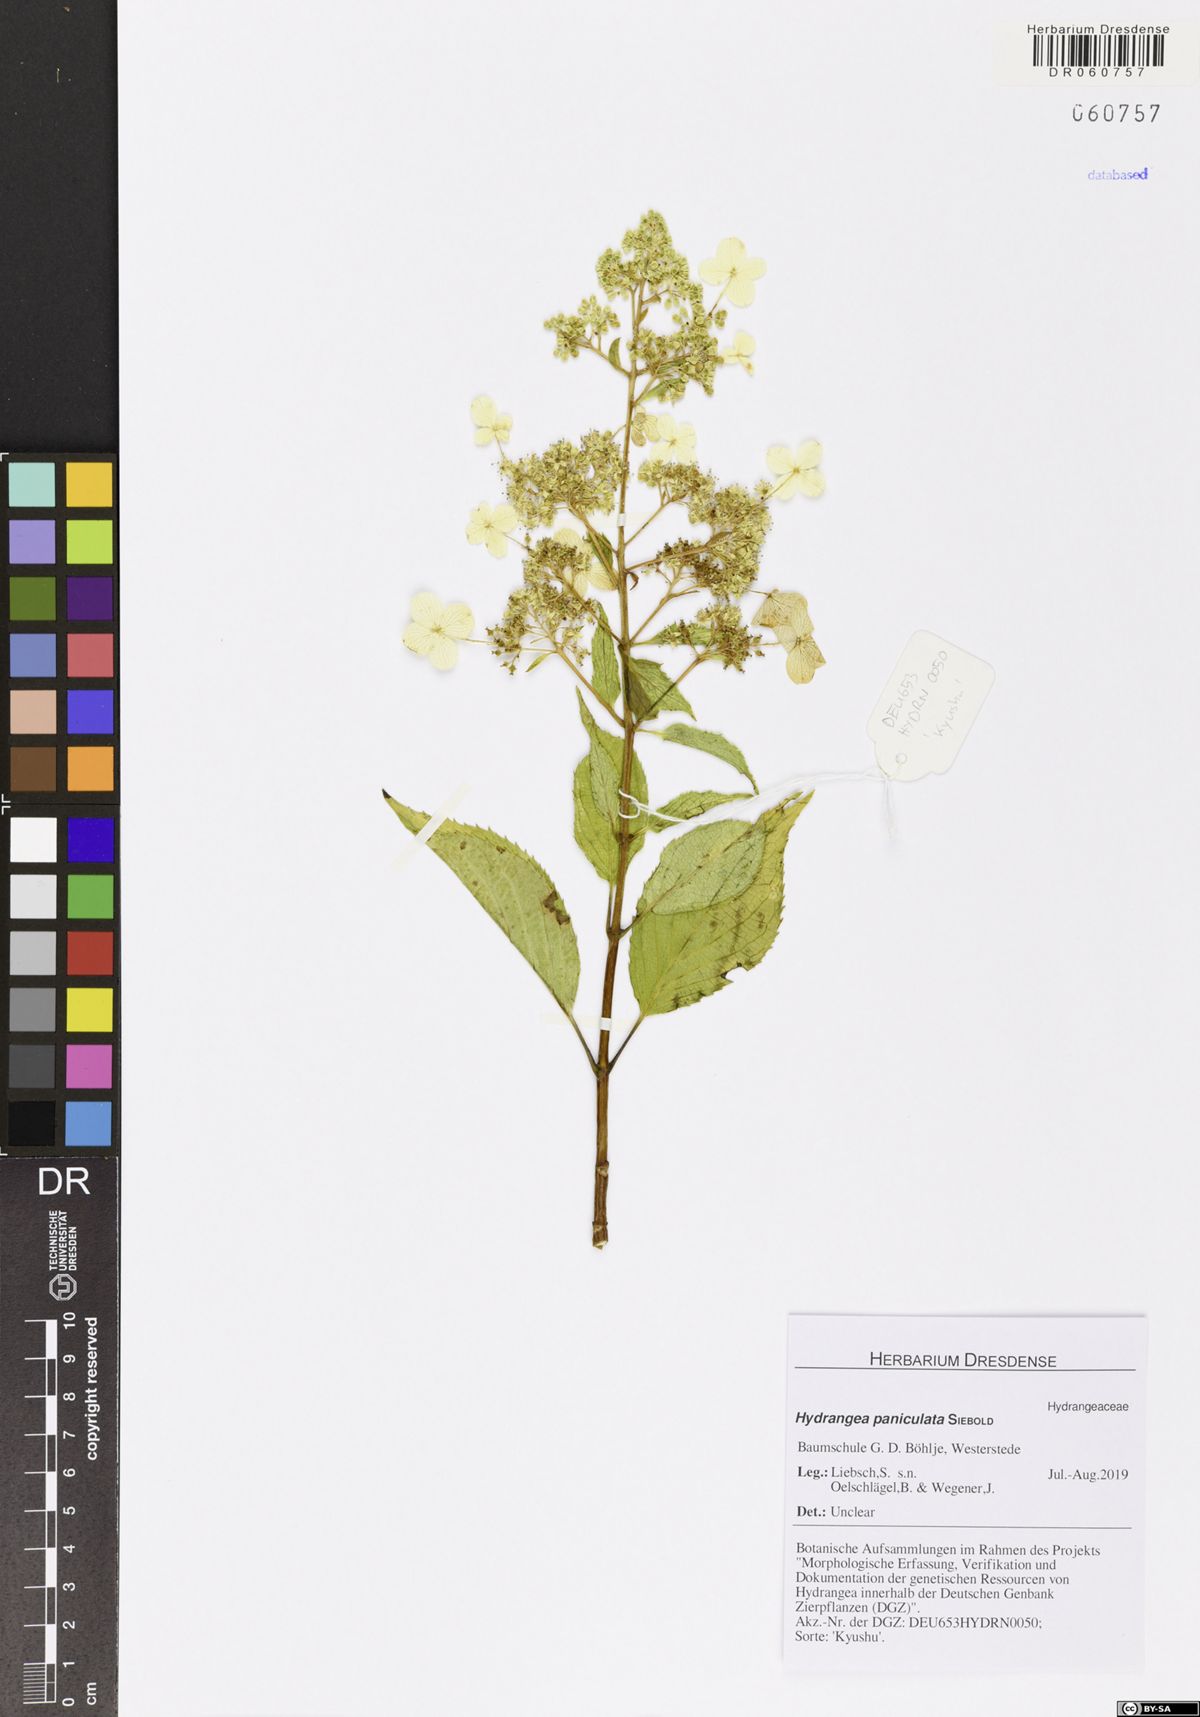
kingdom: Plantae
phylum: Tracheophyta
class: Magnoliopsida
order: Cornales
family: Hydrangeaceae
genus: Hydrangea
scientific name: Hydrangea paniculata
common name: Panicled hydrangea
